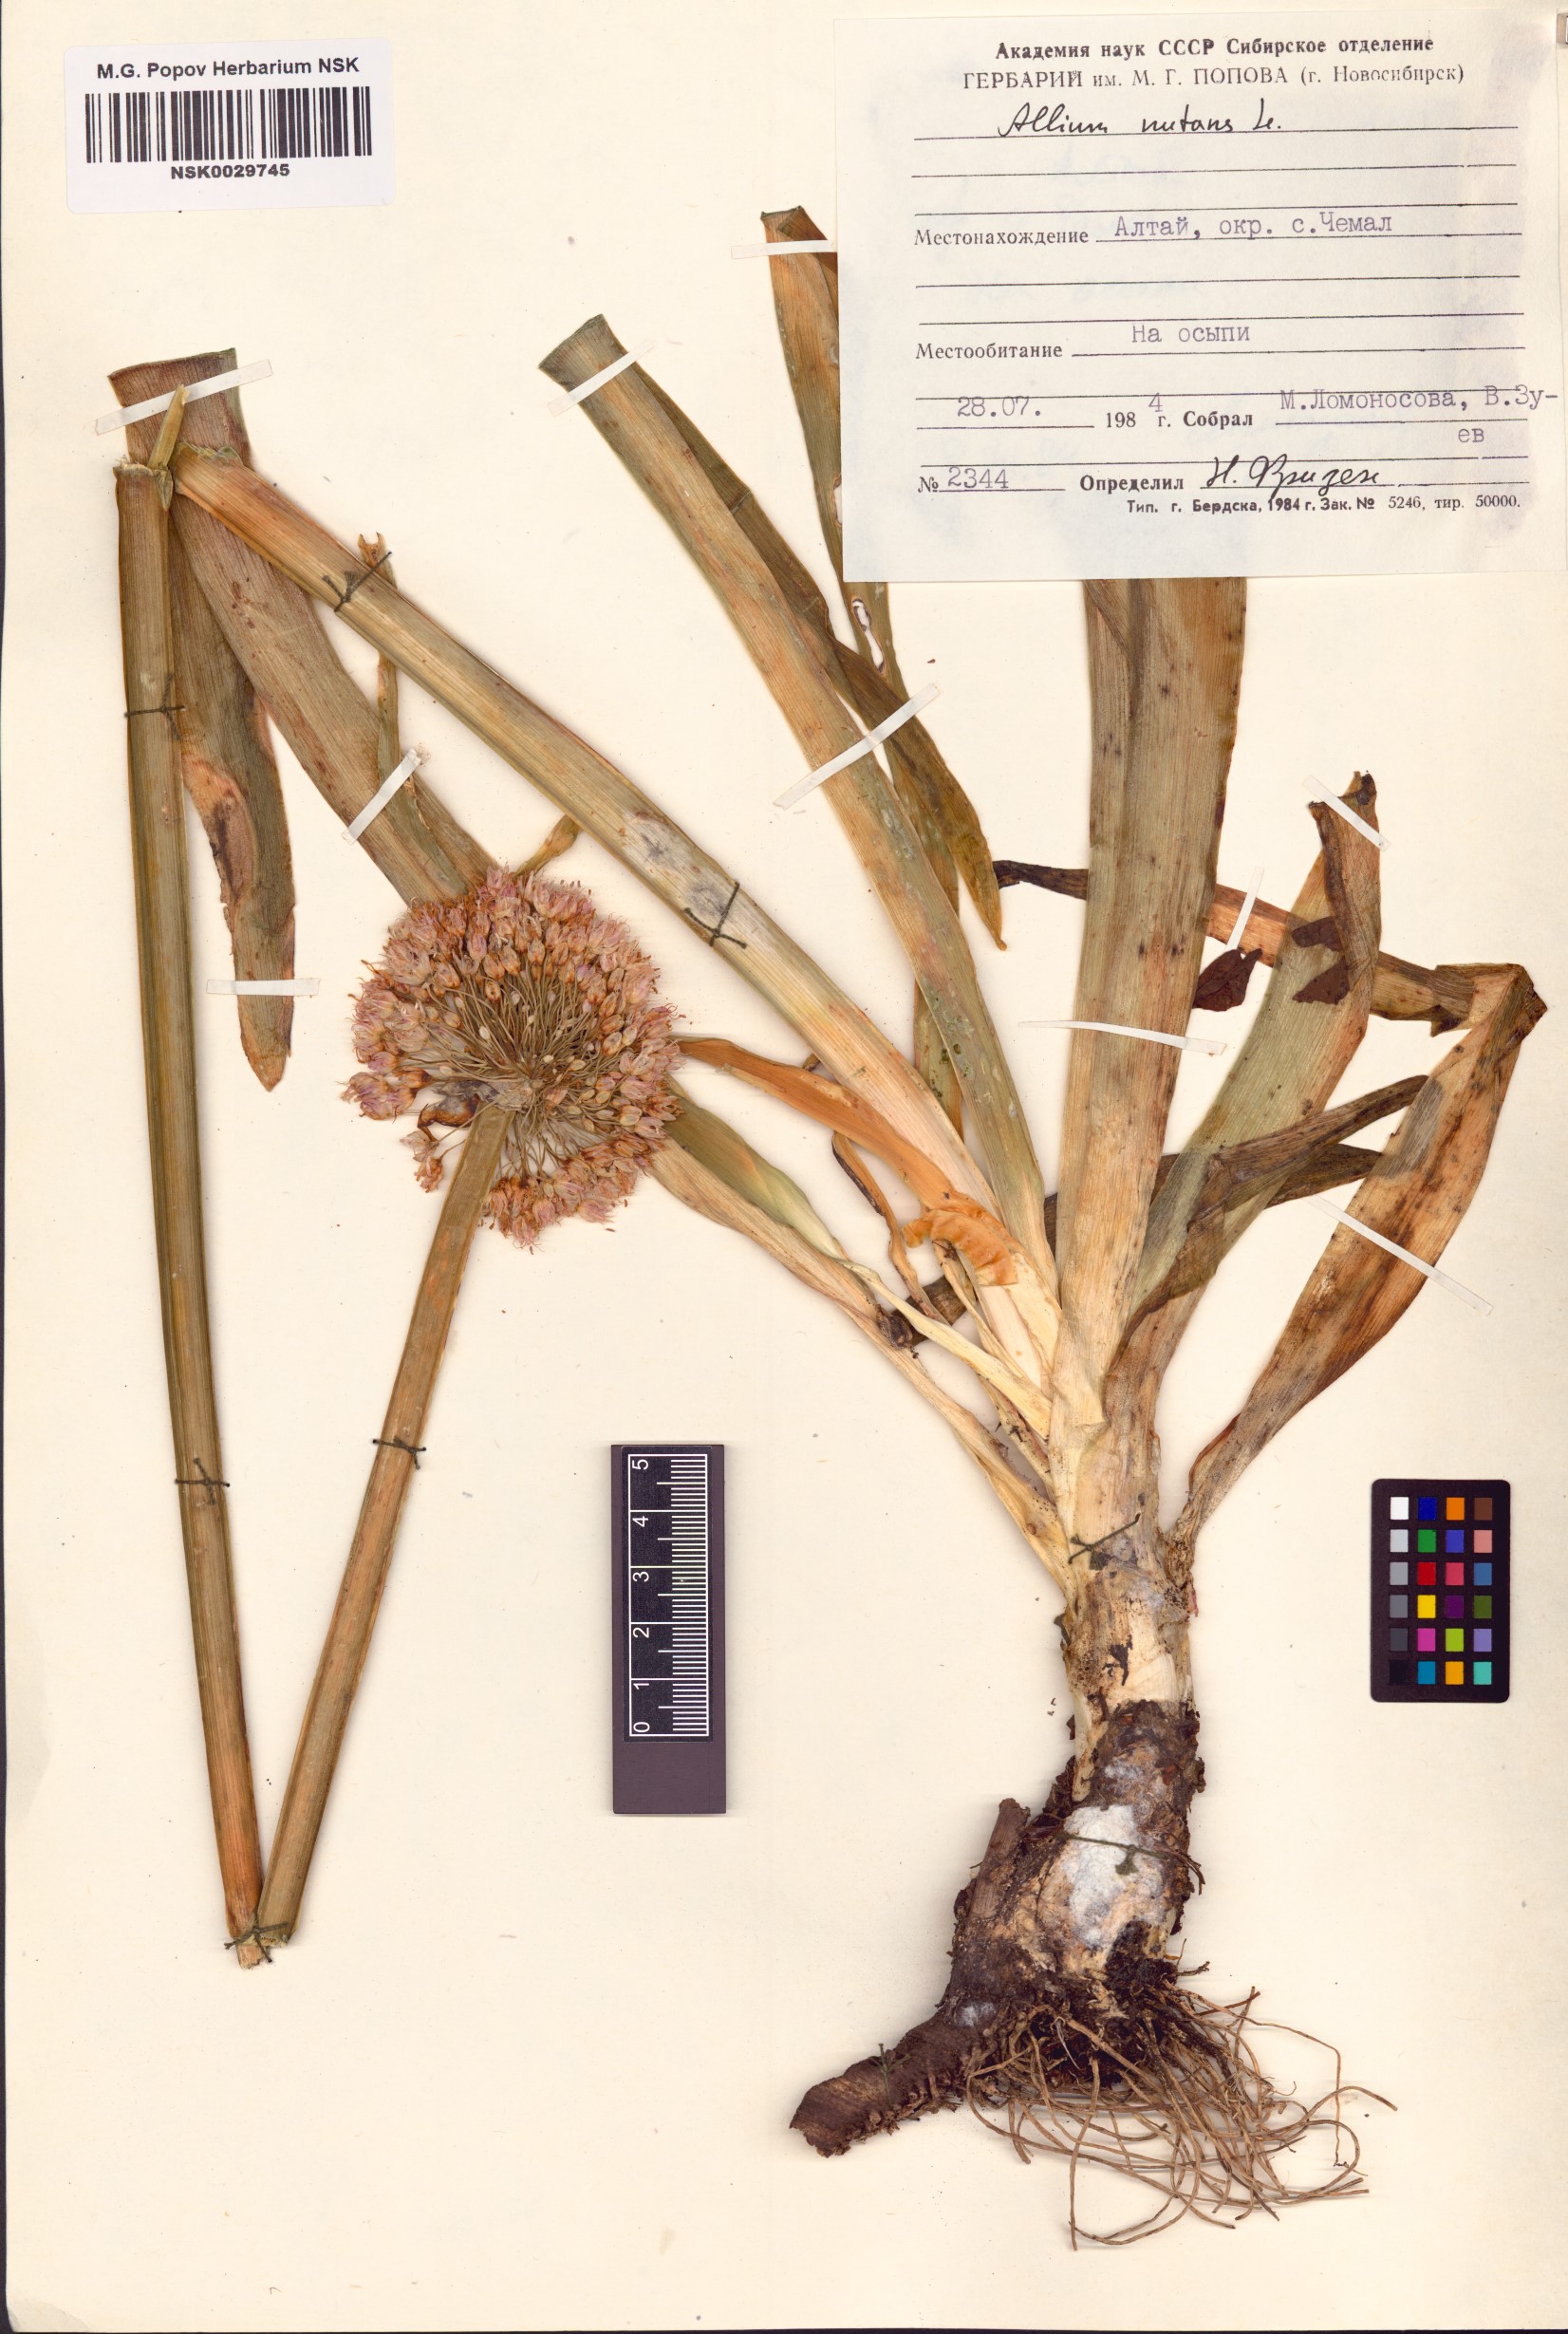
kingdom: Plantae
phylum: Tracheophyta
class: Liliopsida
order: Asparagales
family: Amaryllidaceae
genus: Allium
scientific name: Allium nutans
